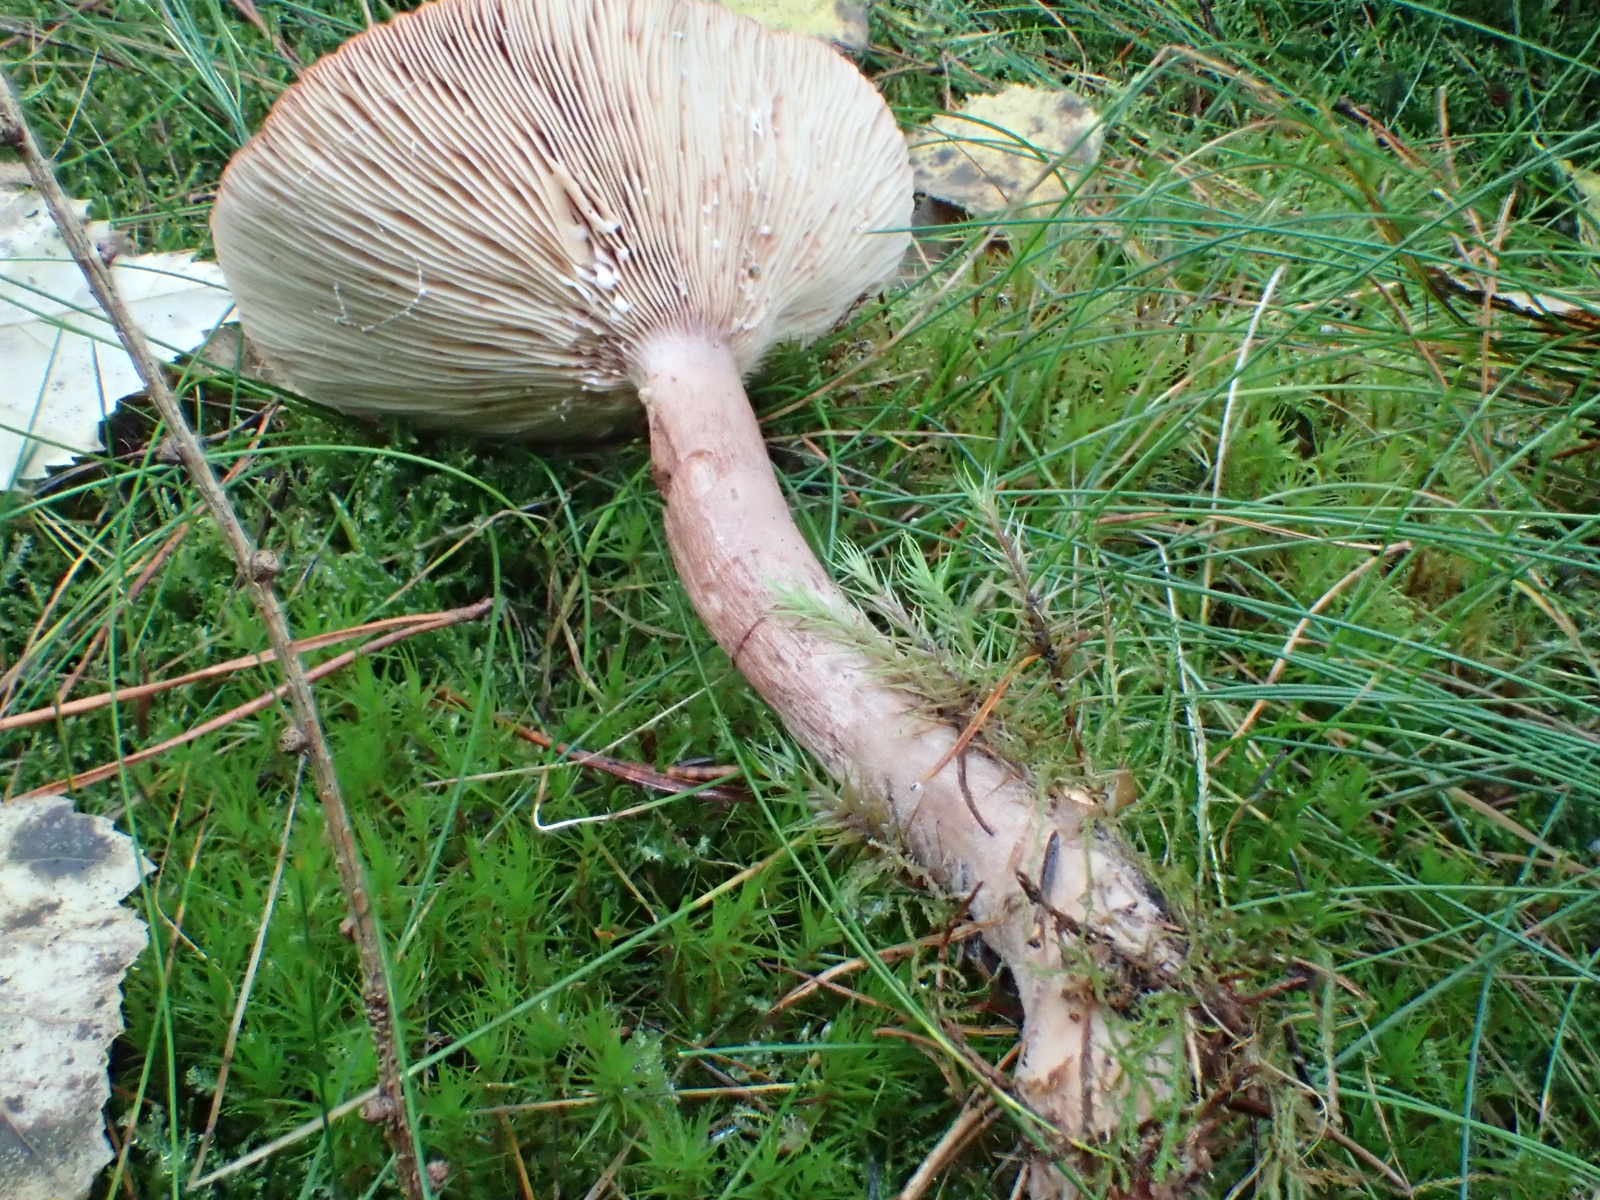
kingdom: Fungi
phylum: Basidiomycota
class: Agaricomycetes
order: Russulales
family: Russulaceae
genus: Lactarius
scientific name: Lactarius
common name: mælkehat
